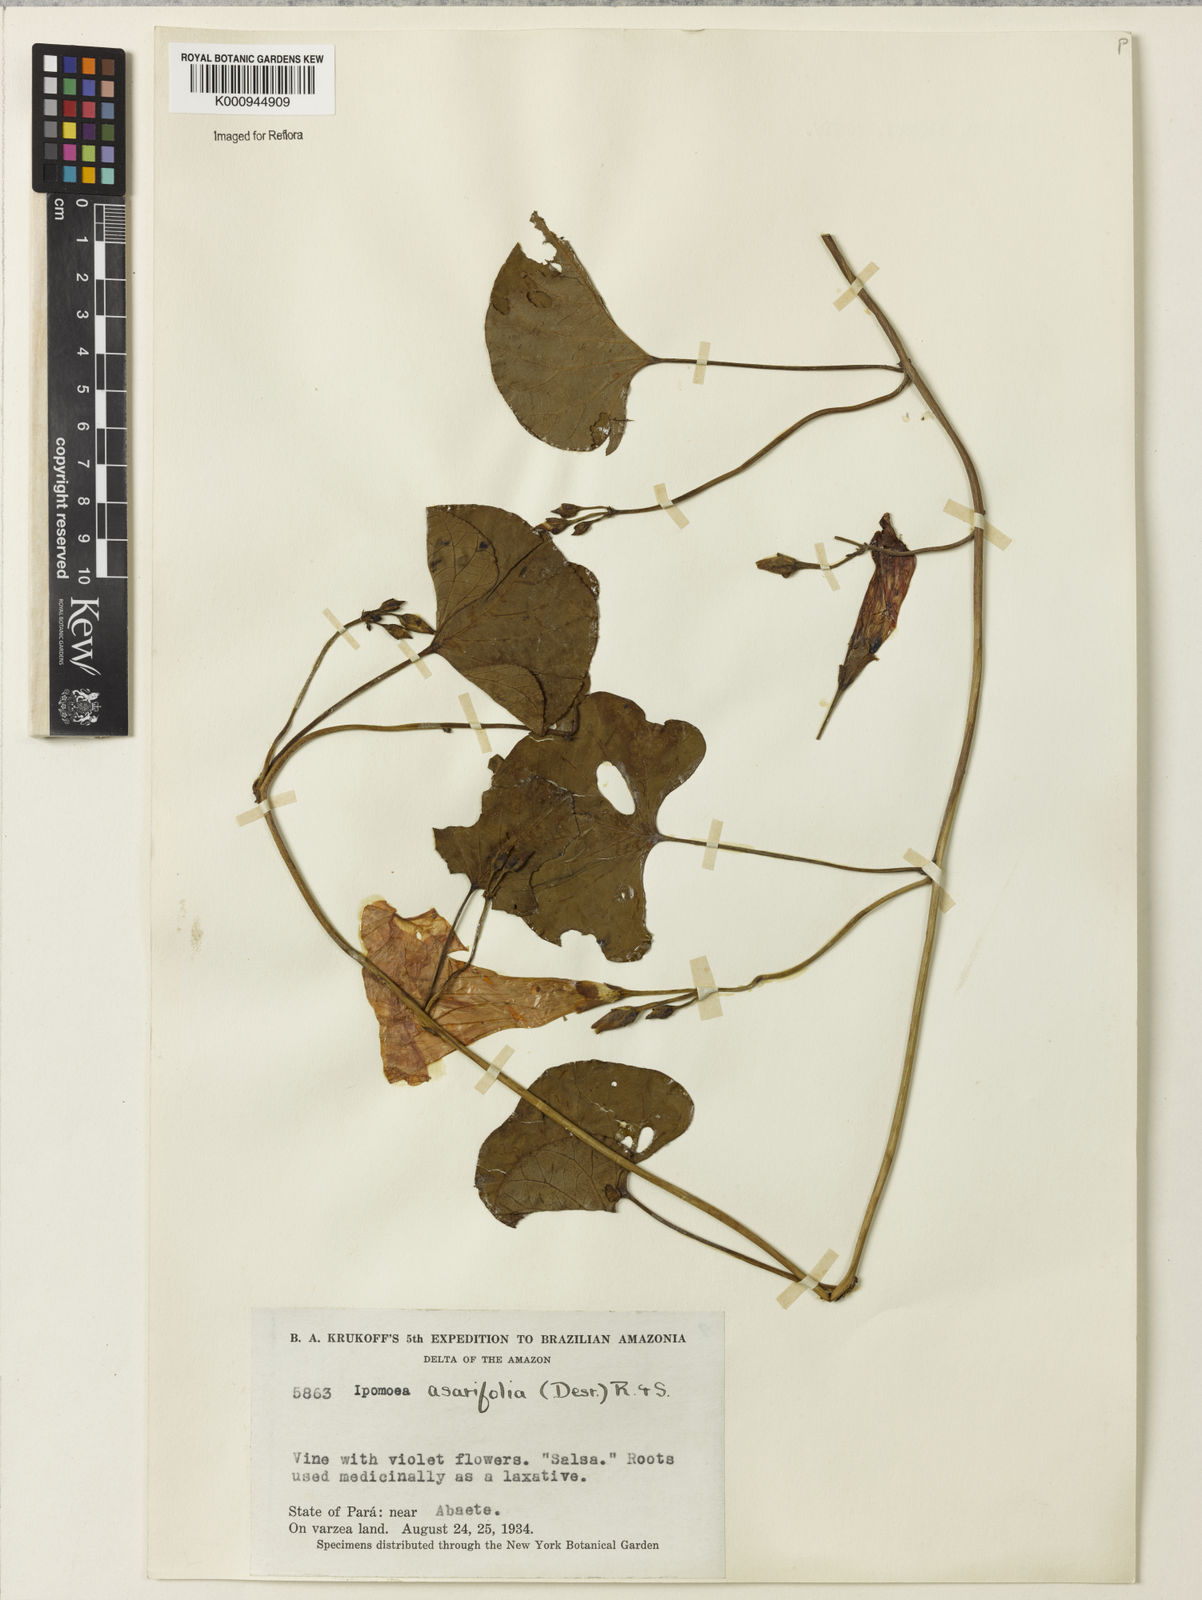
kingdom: Plantae
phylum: Tracheophyta
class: Magnoliopsida
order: Solanales
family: Convolvulaceae
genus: Ipomoea
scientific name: Ipomoea asarifolia
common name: Ginger-leaf morning-glory
